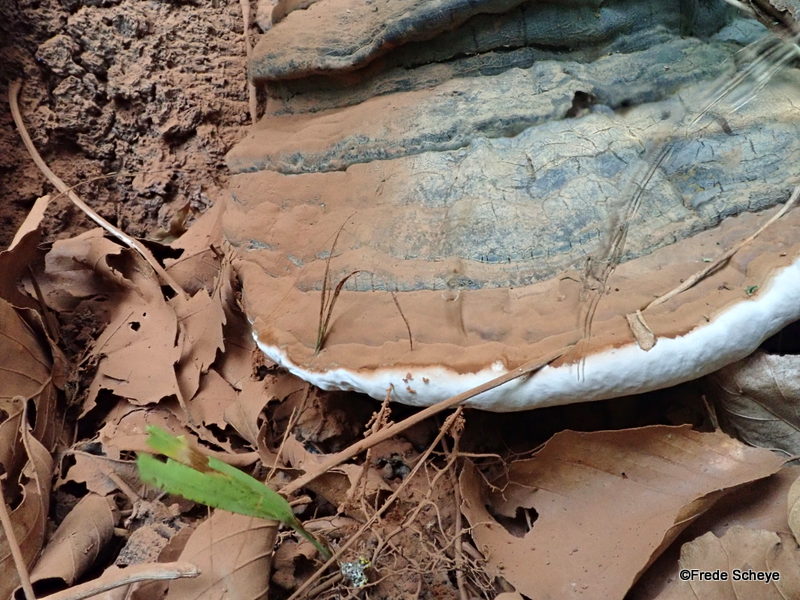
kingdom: Fungi
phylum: Basidiomycota
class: Agaricomycetes
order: Polyporales
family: Polyporaceae
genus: Ganoderma
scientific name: Ganoderma applanatum
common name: flad lakporesvamp
